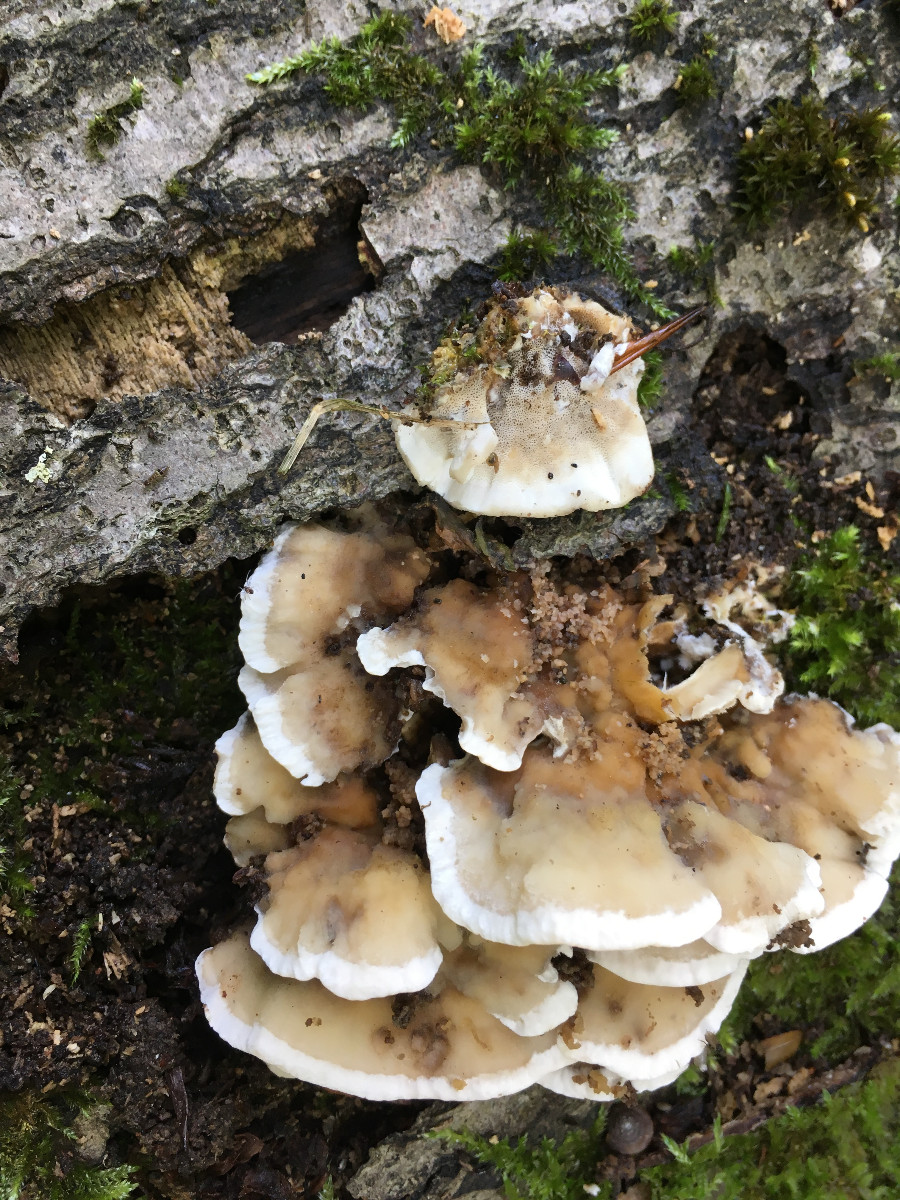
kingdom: Fungi
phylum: Basidiomycota
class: Agaricomycetes
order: Polyporales
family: Phanerochaetaceae
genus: Bjerkandera
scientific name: Bjerkandera adusta
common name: sveden sodporesvamp
